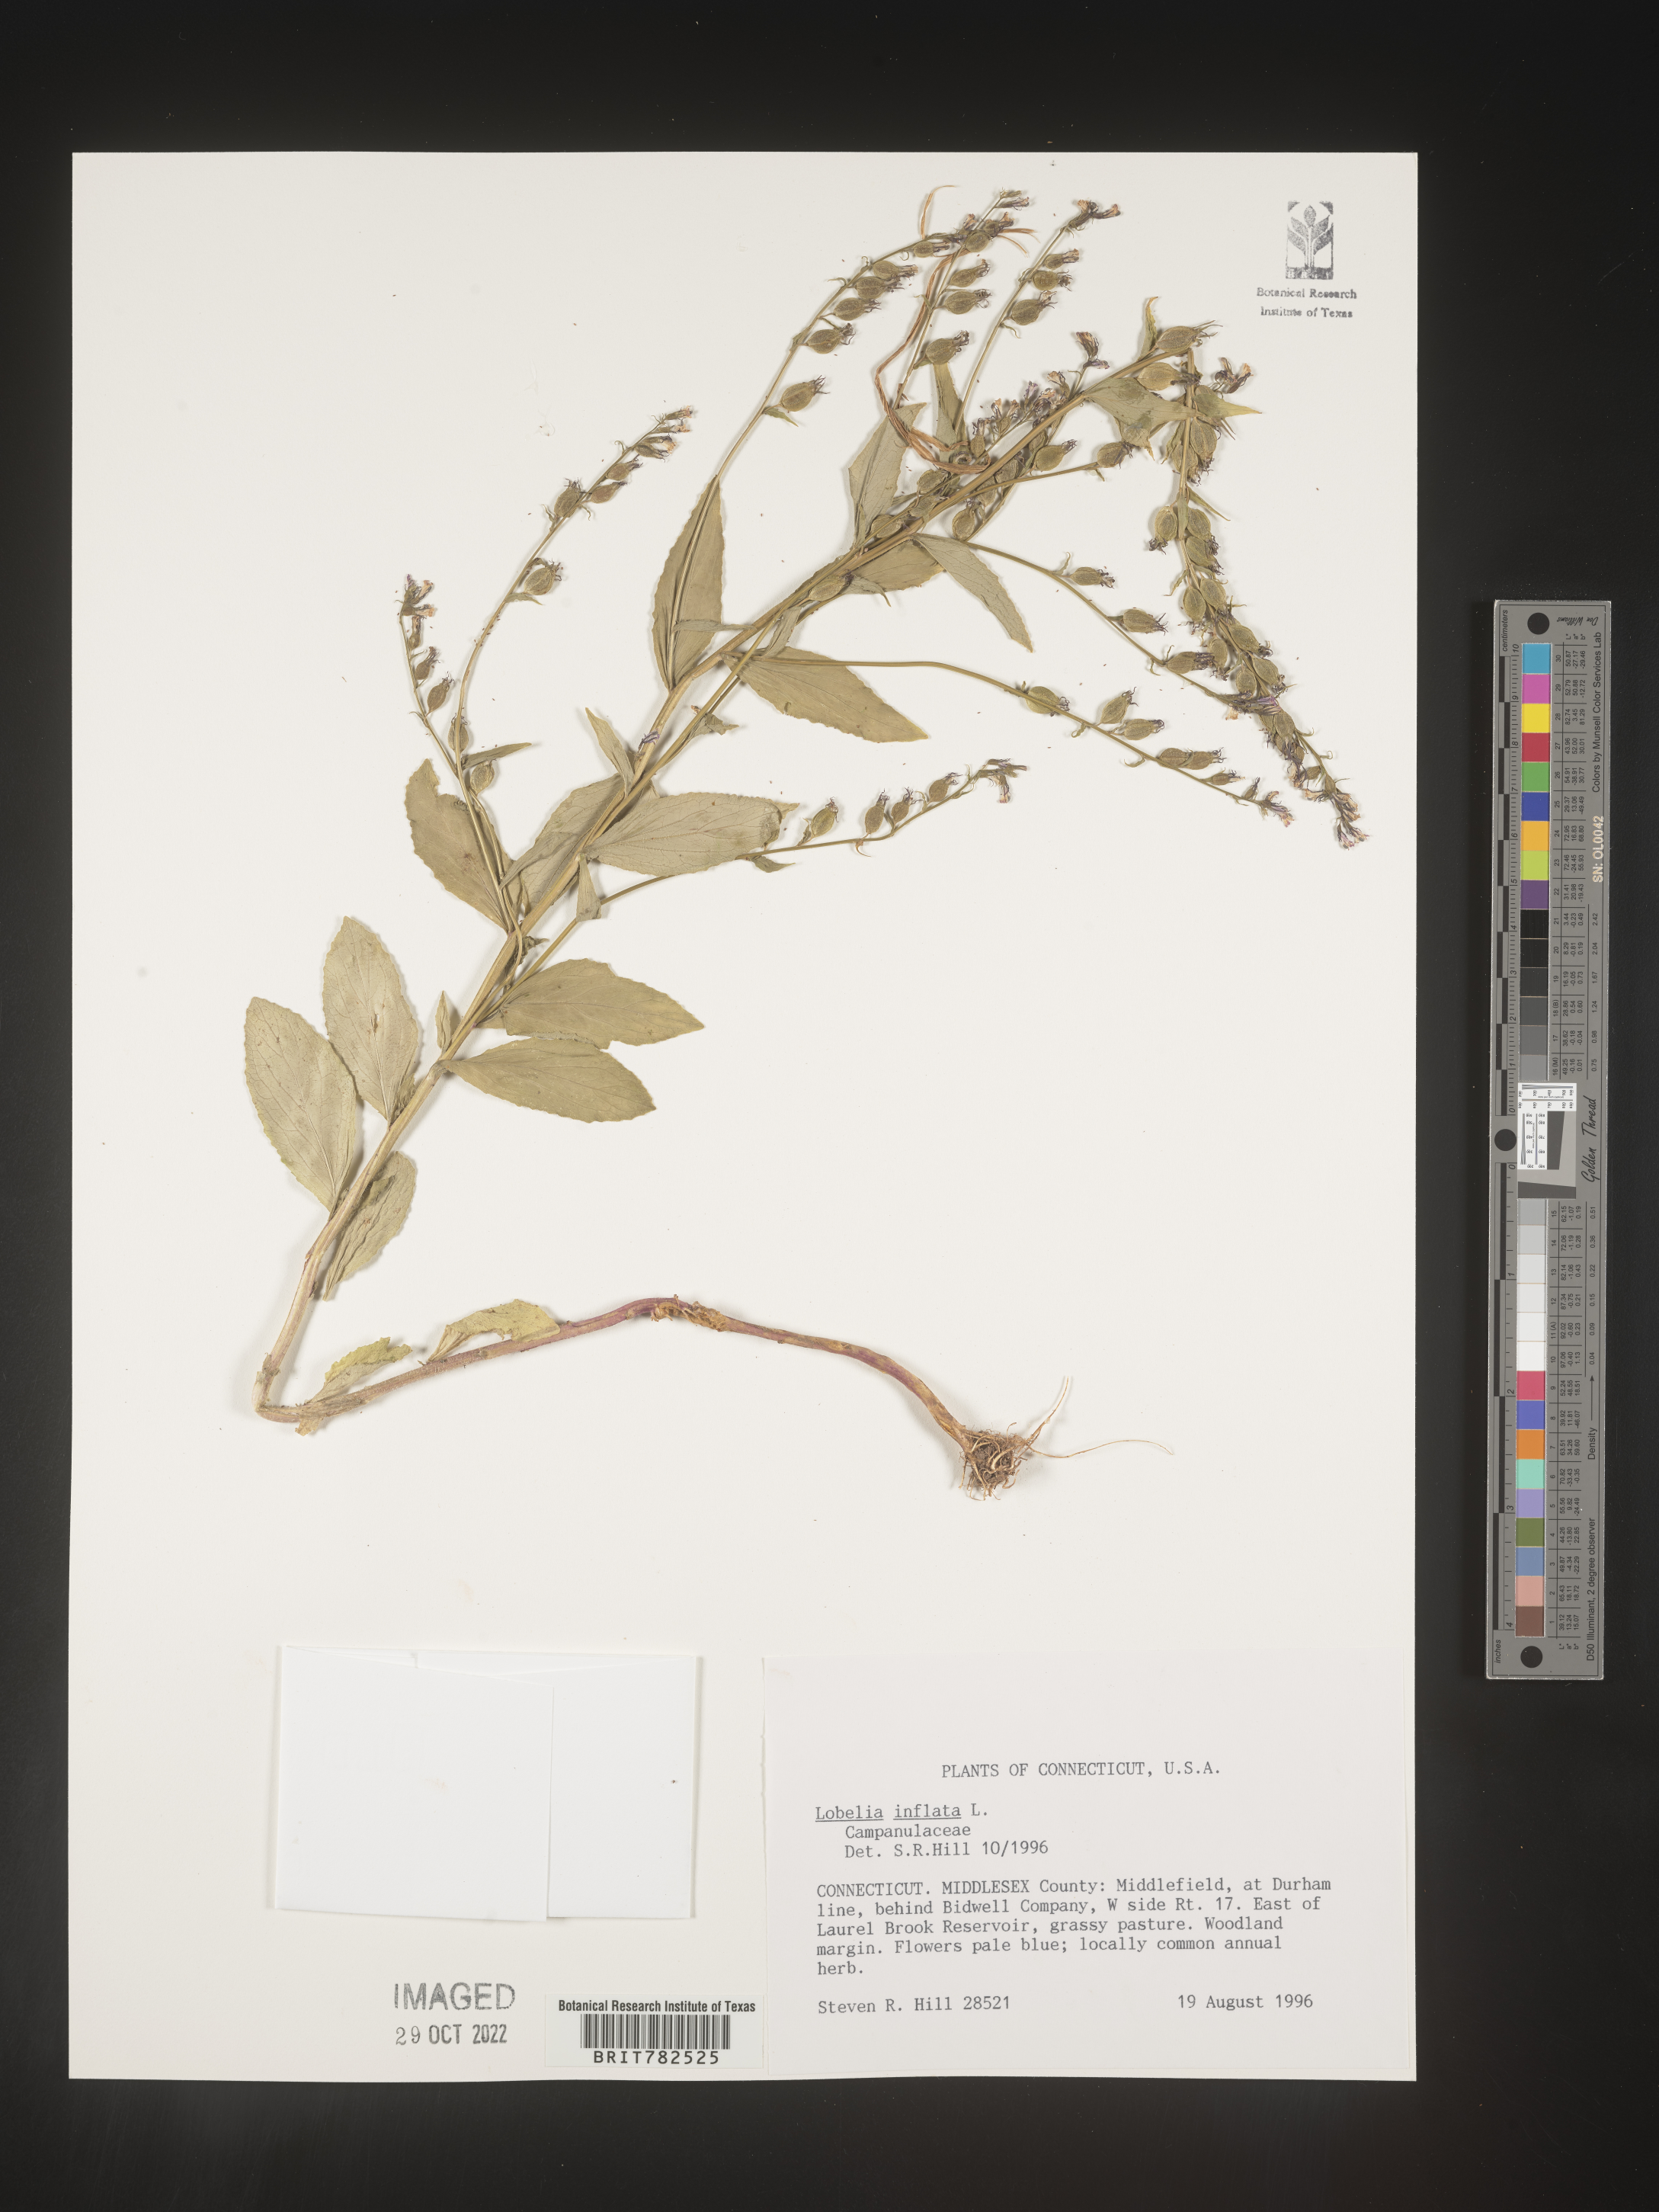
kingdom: Plantae
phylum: Tracheophyta
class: Magnoliopsida
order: Asterales
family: Campanulaceae
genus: Lobelia
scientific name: Lobelia inflata
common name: Indian tobacco
